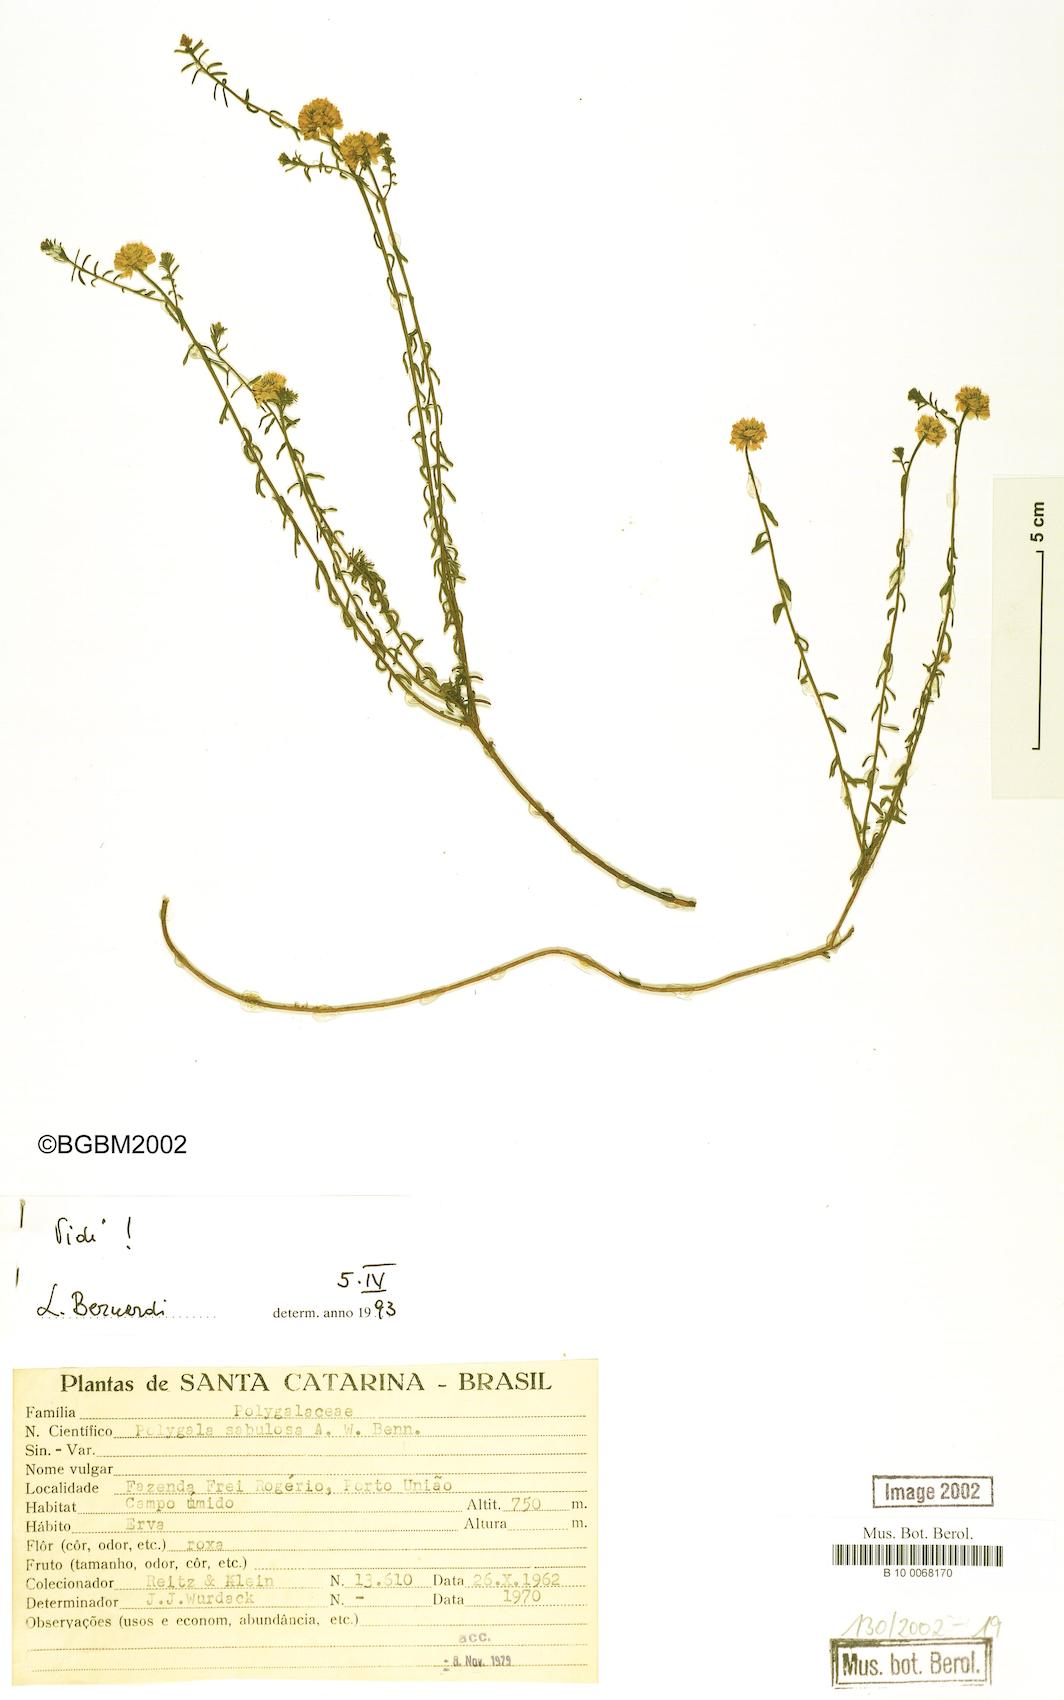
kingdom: Plantae
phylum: Tracheophyta
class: Magnoliopsida
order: Fabales
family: Polygalaceae
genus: Polygala
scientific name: Polygala sellowiana
